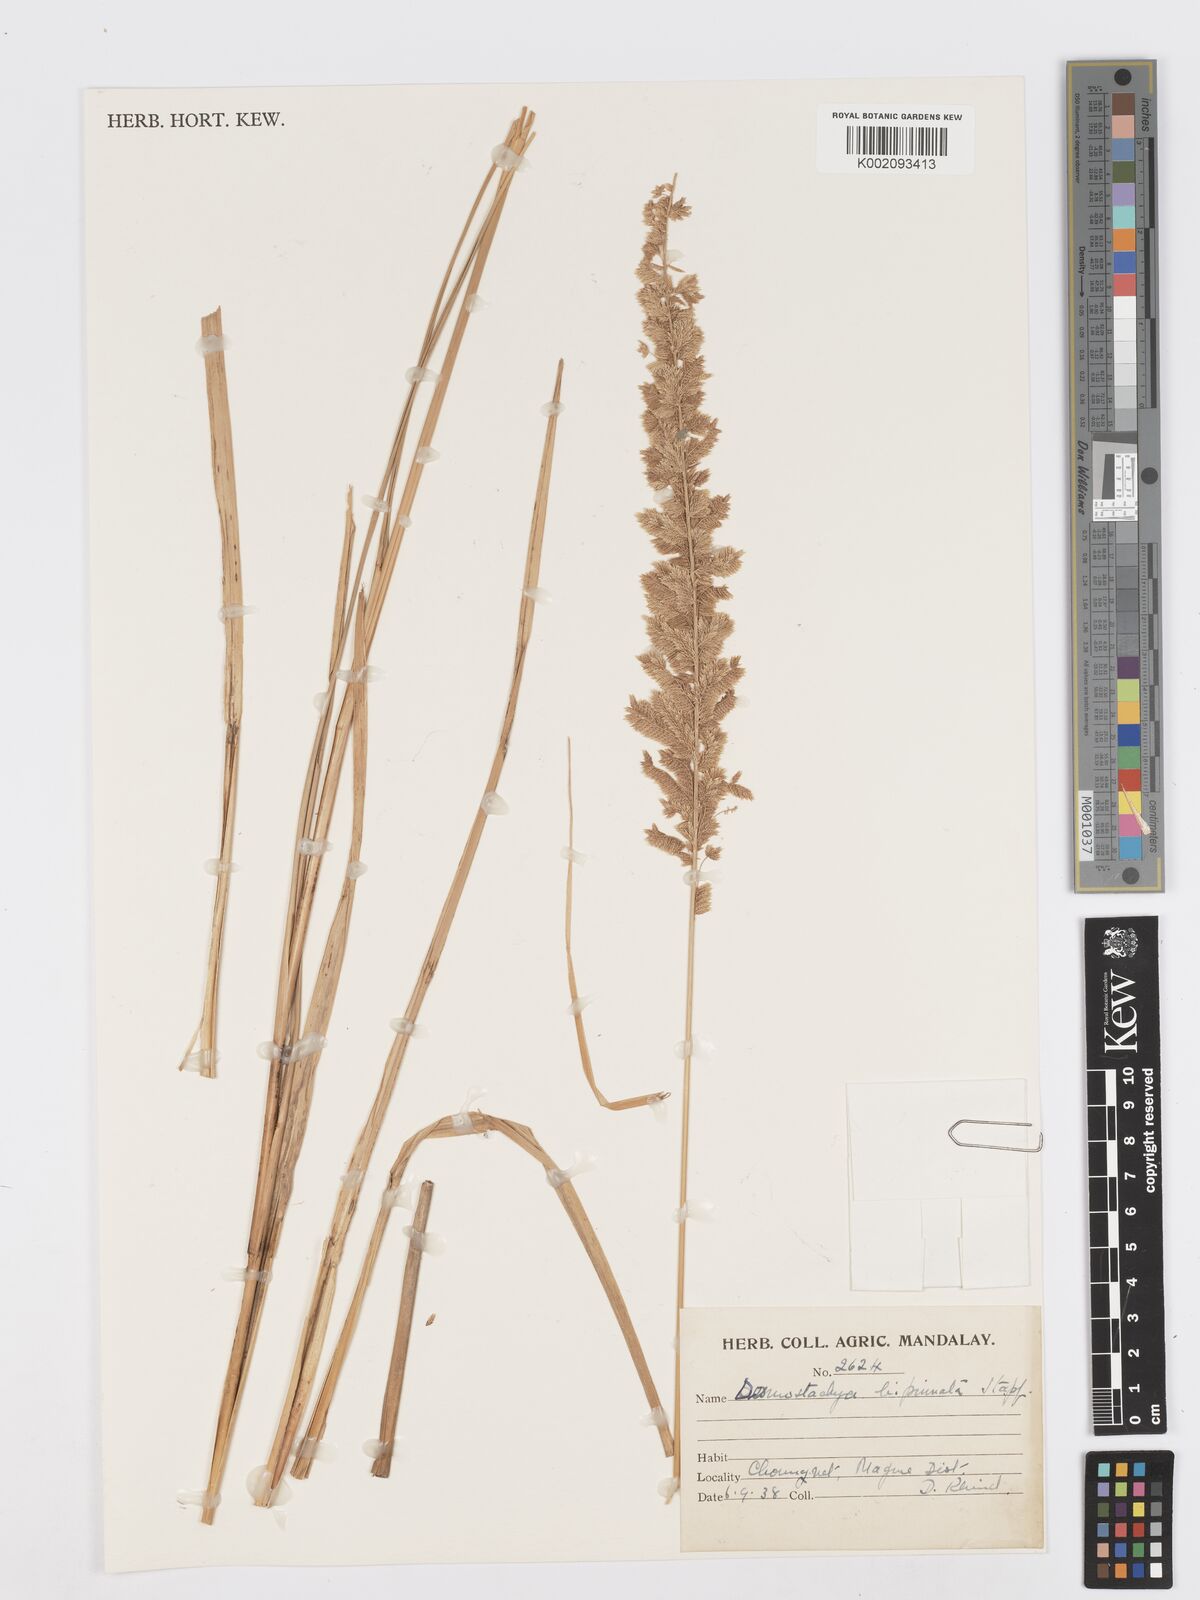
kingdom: Plantae
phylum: Tracheophyta
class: Liliopsida
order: Poales
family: Poaceae
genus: Desmostachya
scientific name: Desmostachya bipinnata
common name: Crowfoot grass
